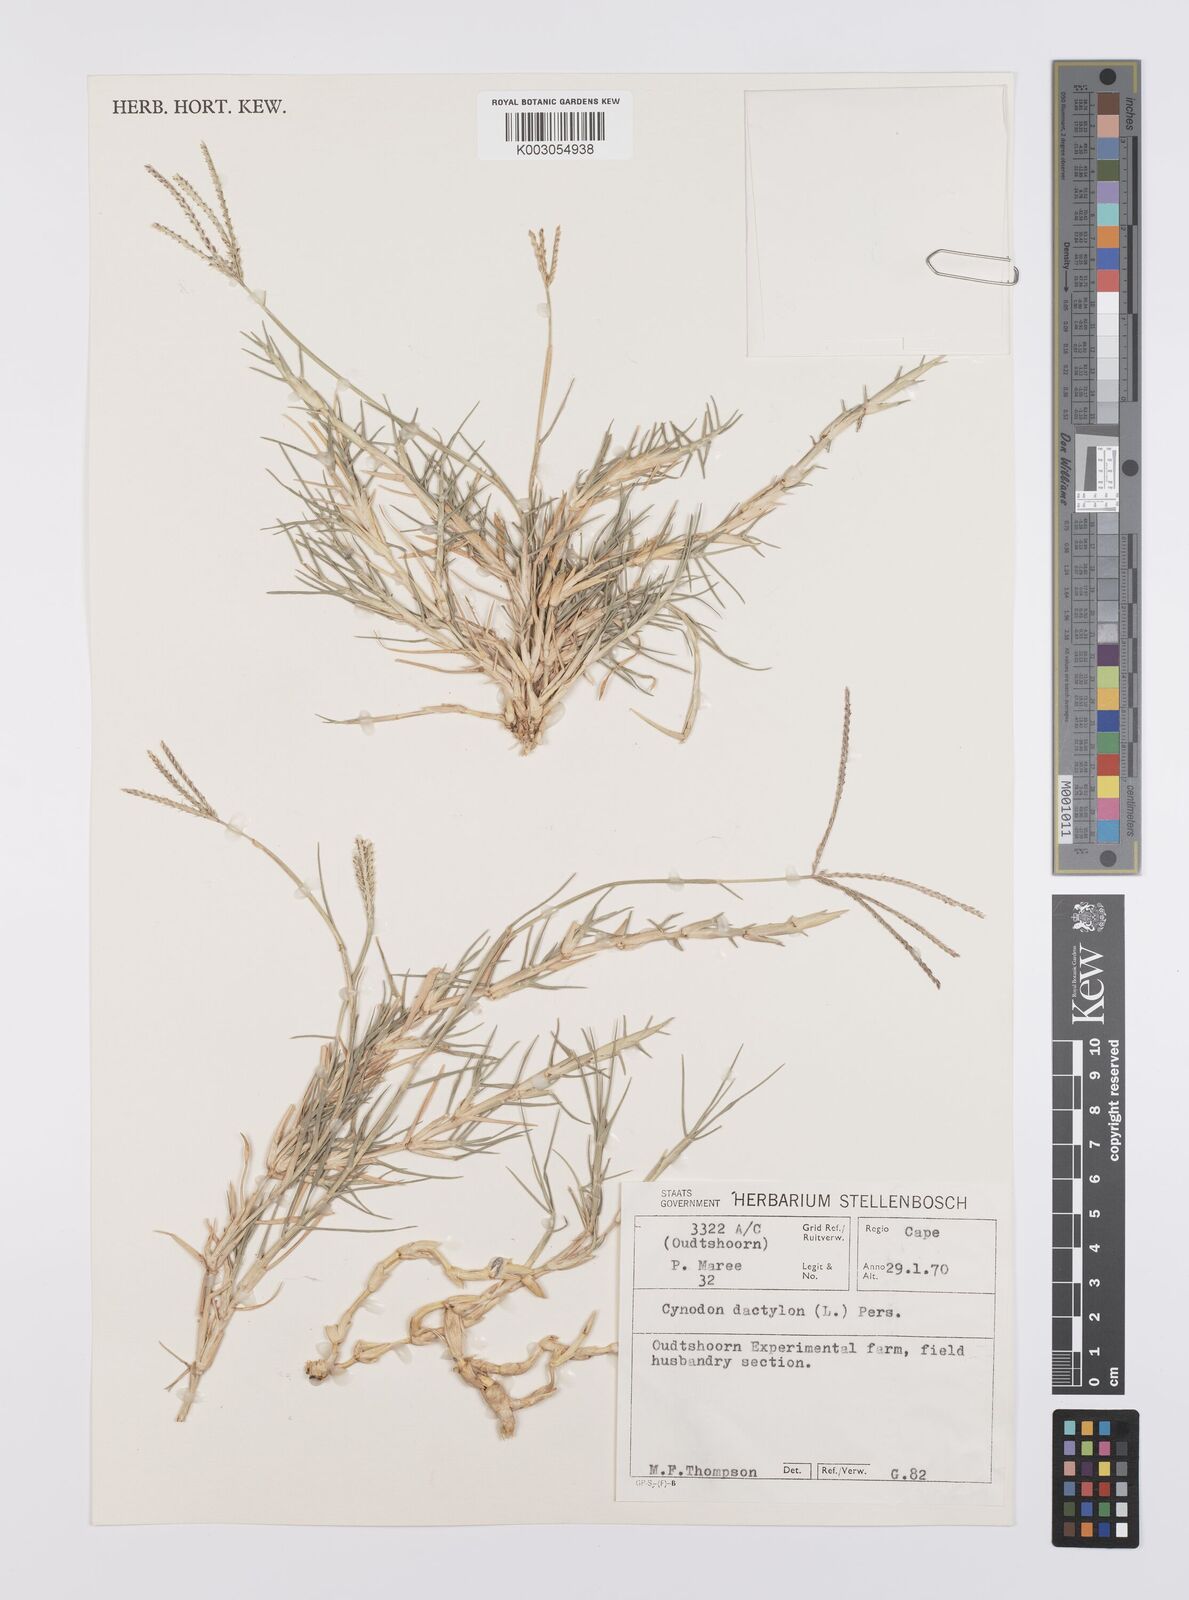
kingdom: Plantae
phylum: Tracheophyta
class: Liliopsida
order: Poales
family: Poaceae
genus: Cynodon
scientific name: Cynodon dactylon
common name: Bermuda grass
